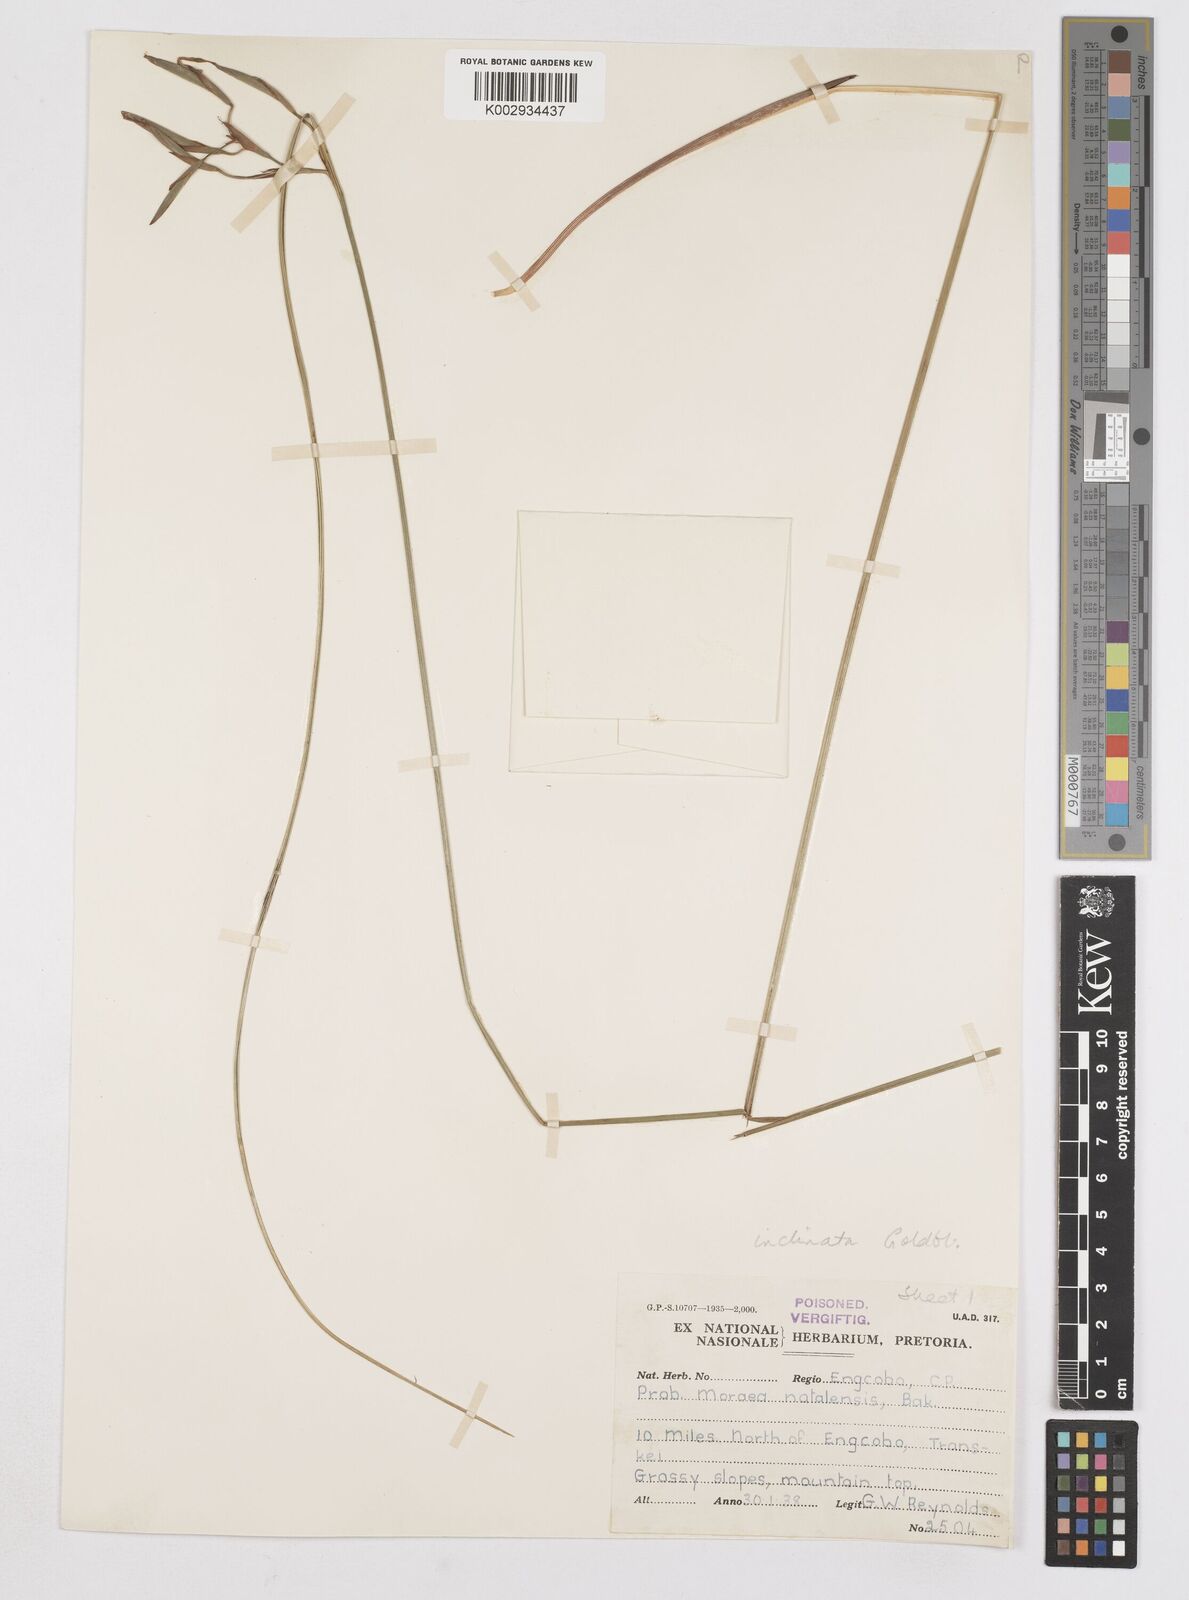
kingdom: Plantae
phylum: Tracheophyta
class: Liliopsida
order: Asparagales
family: Iridaceae
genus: Moraea
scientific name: Moraea inclinata
